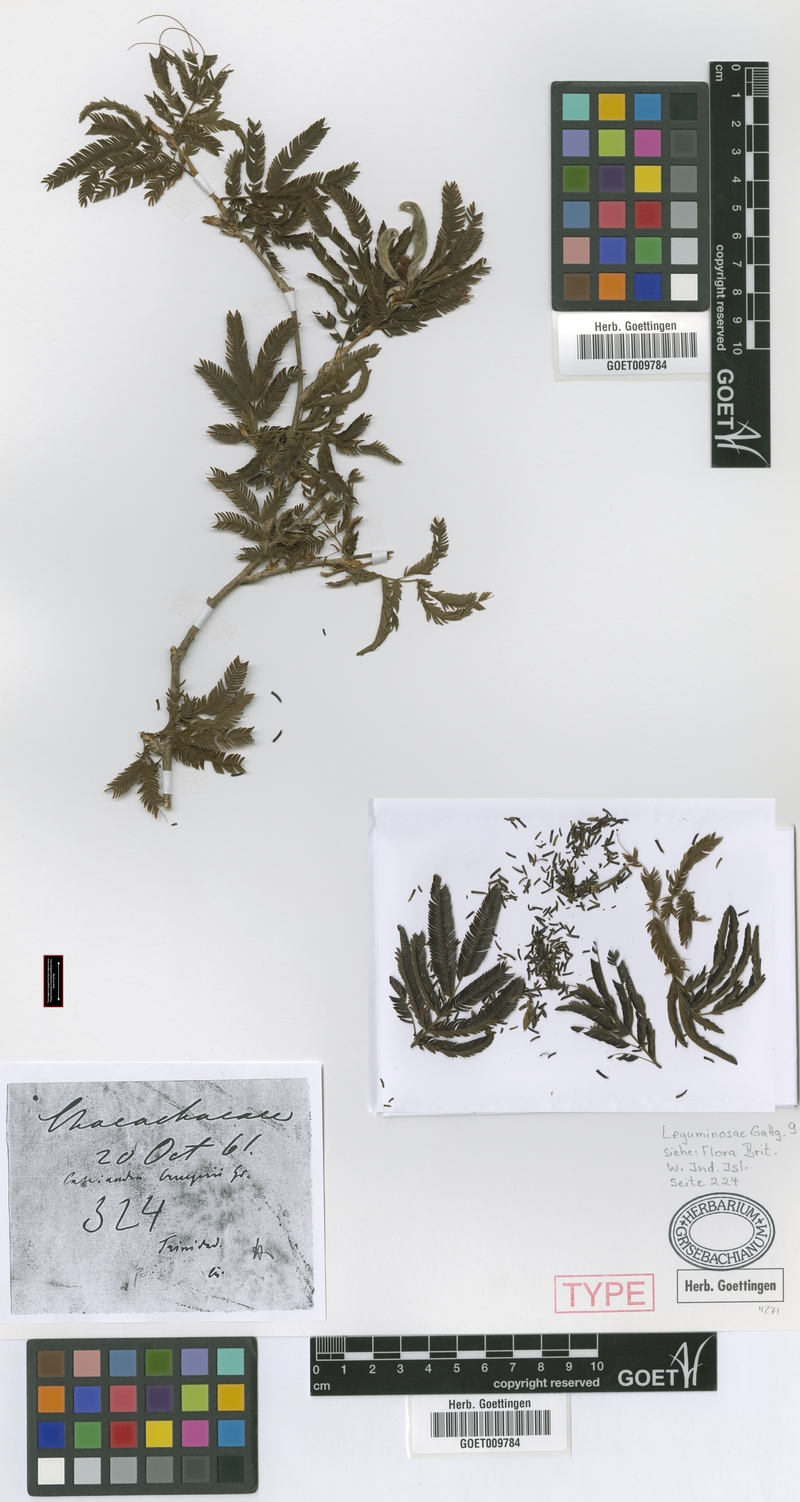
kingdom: Plantae
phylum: Tracheophyta
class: Magnoliopsida
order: Fabales
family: Fabaceae
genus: Calliandra
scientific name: Calliandra cruegeri
